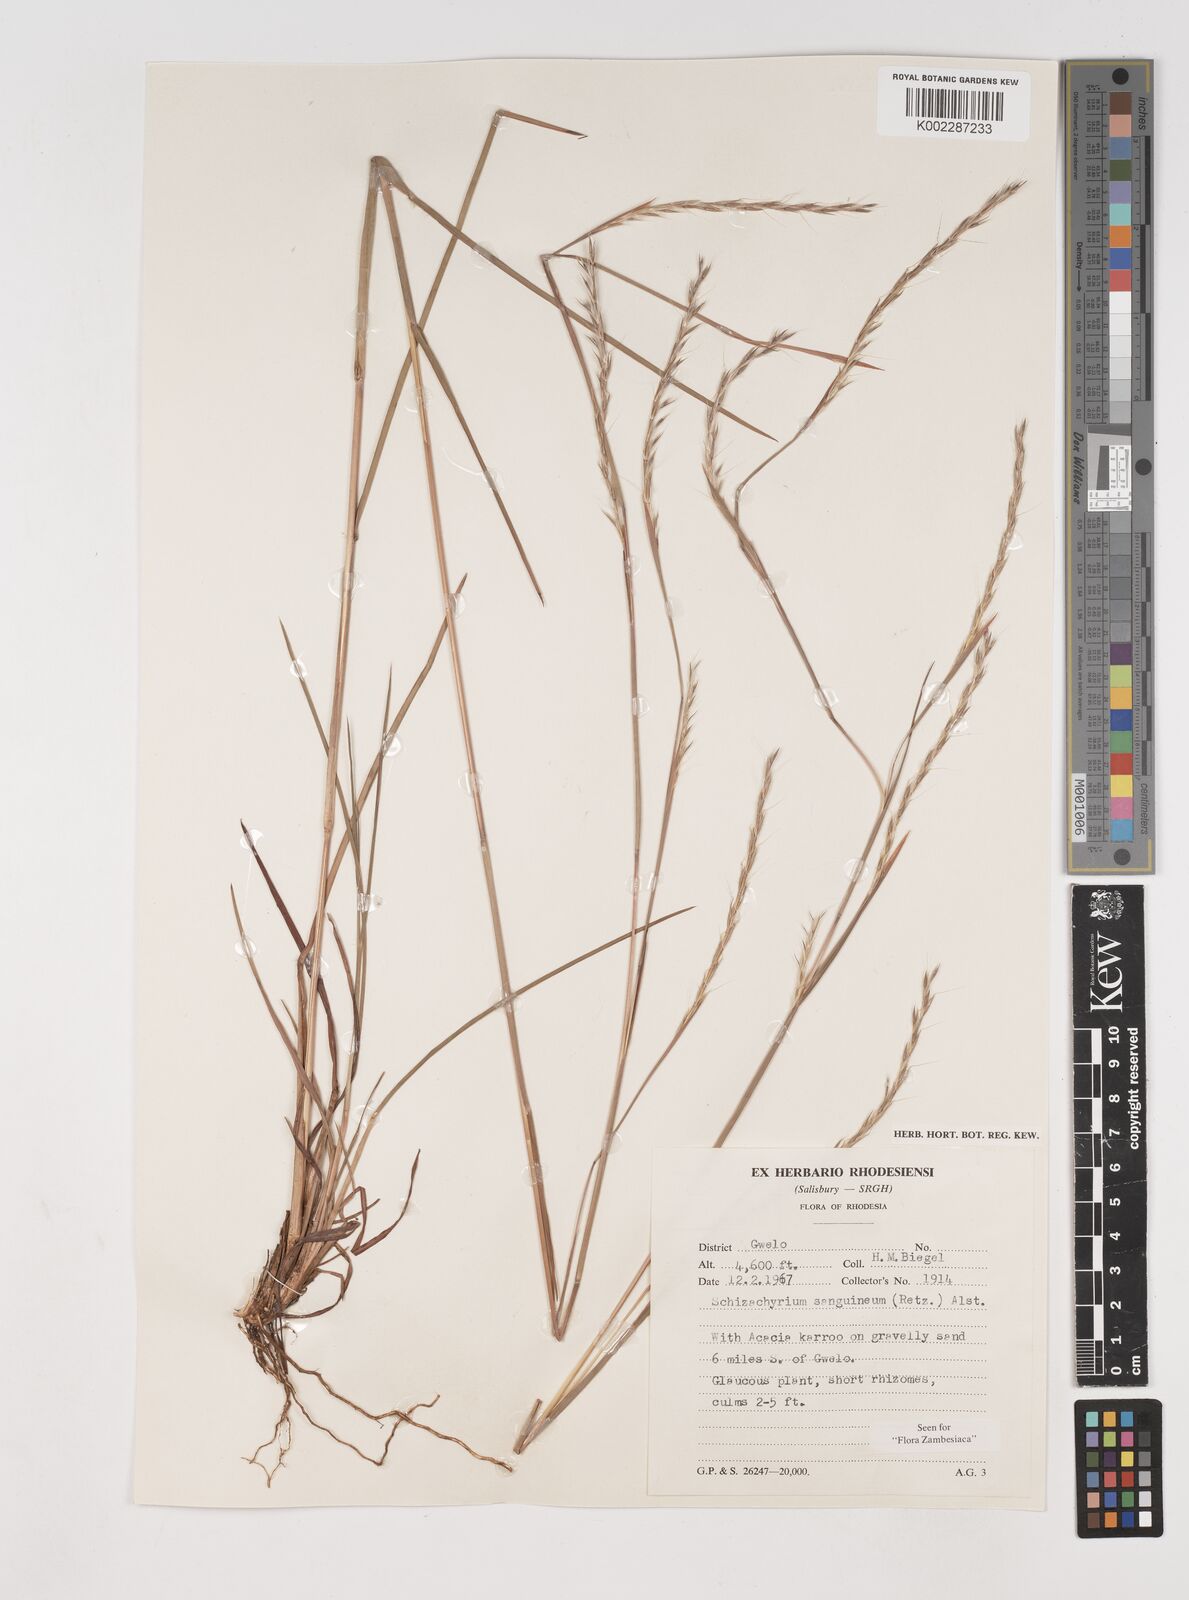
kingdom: Plantae
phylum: Tracheophyta
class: Liliopsida
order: Poales
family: Poaceae
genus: Schizachyrium
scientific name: Schizachyrium sanguineum
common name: Crimson bluestem
